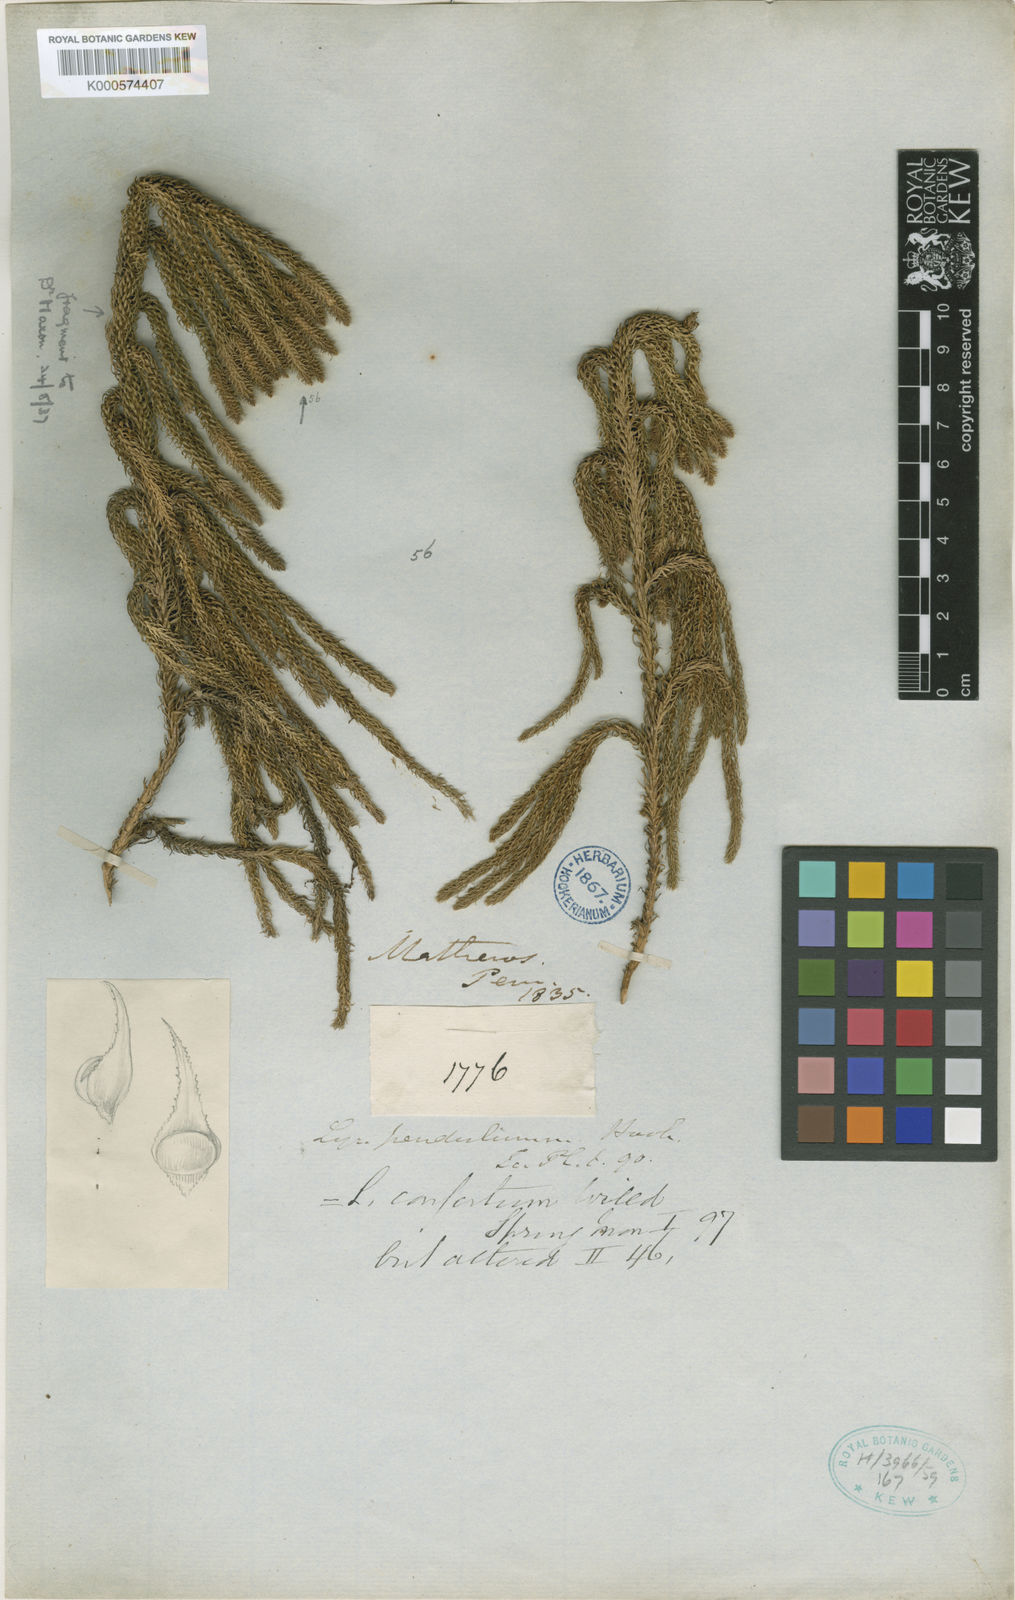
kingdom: Plantae
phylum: Tracheophyta
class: Lycopodiopsida
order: Lycopodiales
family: Lycopodiaceae
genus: Palhinhaea
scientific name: Palhinhaea pendulina
